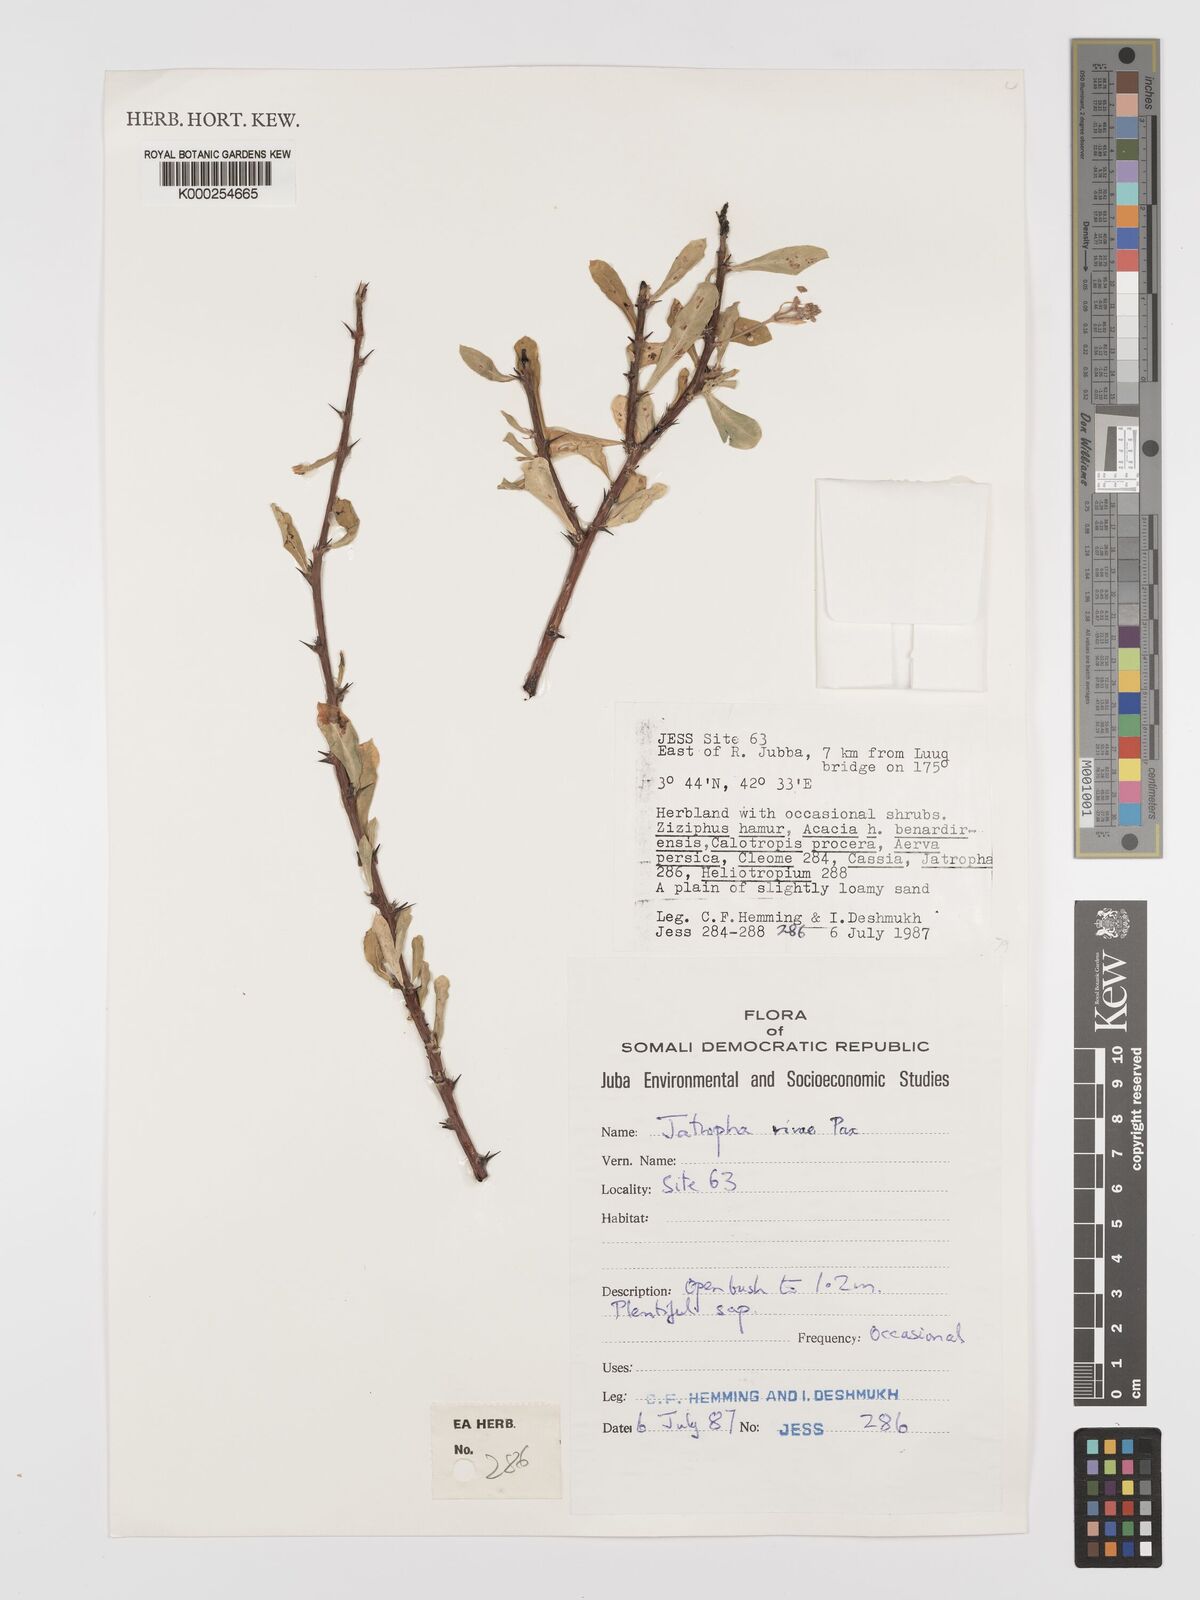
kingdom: Plantae
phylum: Tracheophyta
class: Magnoliopsida
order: Malpighiales
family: Euphorbiaceae
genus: Jatropha
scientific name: Jatropha rivae
